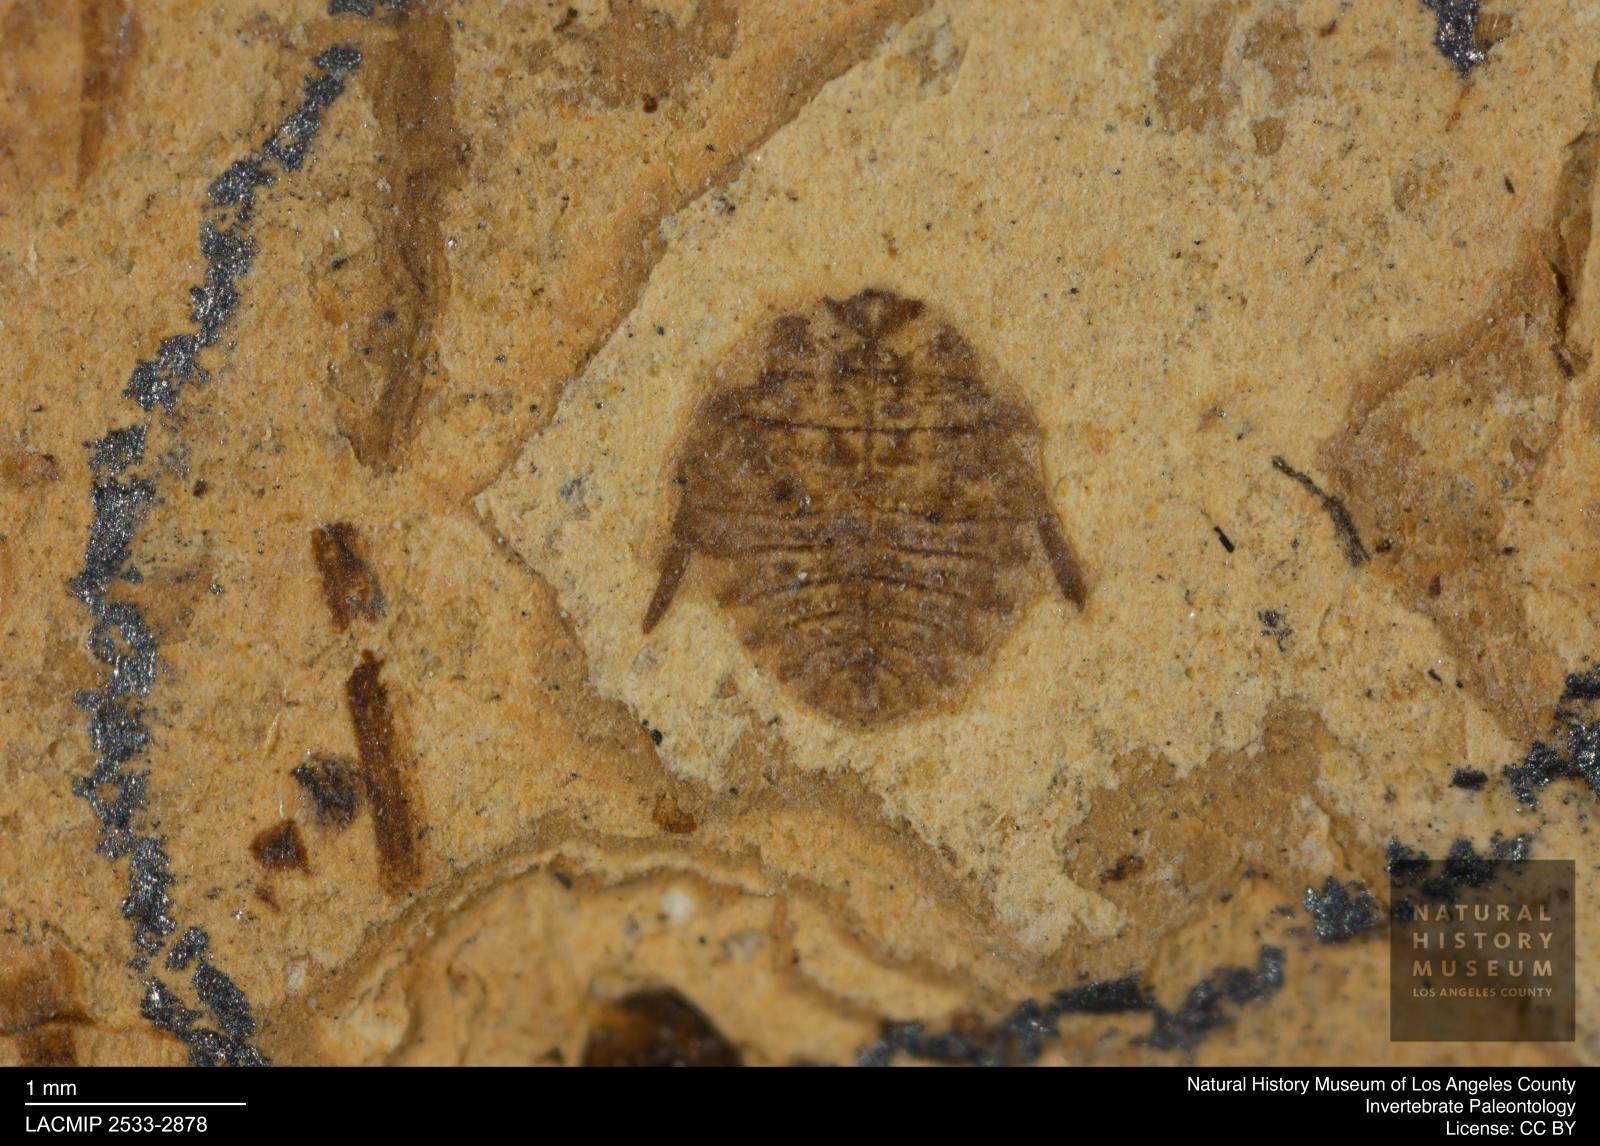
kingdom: Animalia
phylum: Arthropoda
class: Insecta
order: Hemiptera
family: Naucoridae
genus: Naucoris
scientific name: Naucoris rottensis
